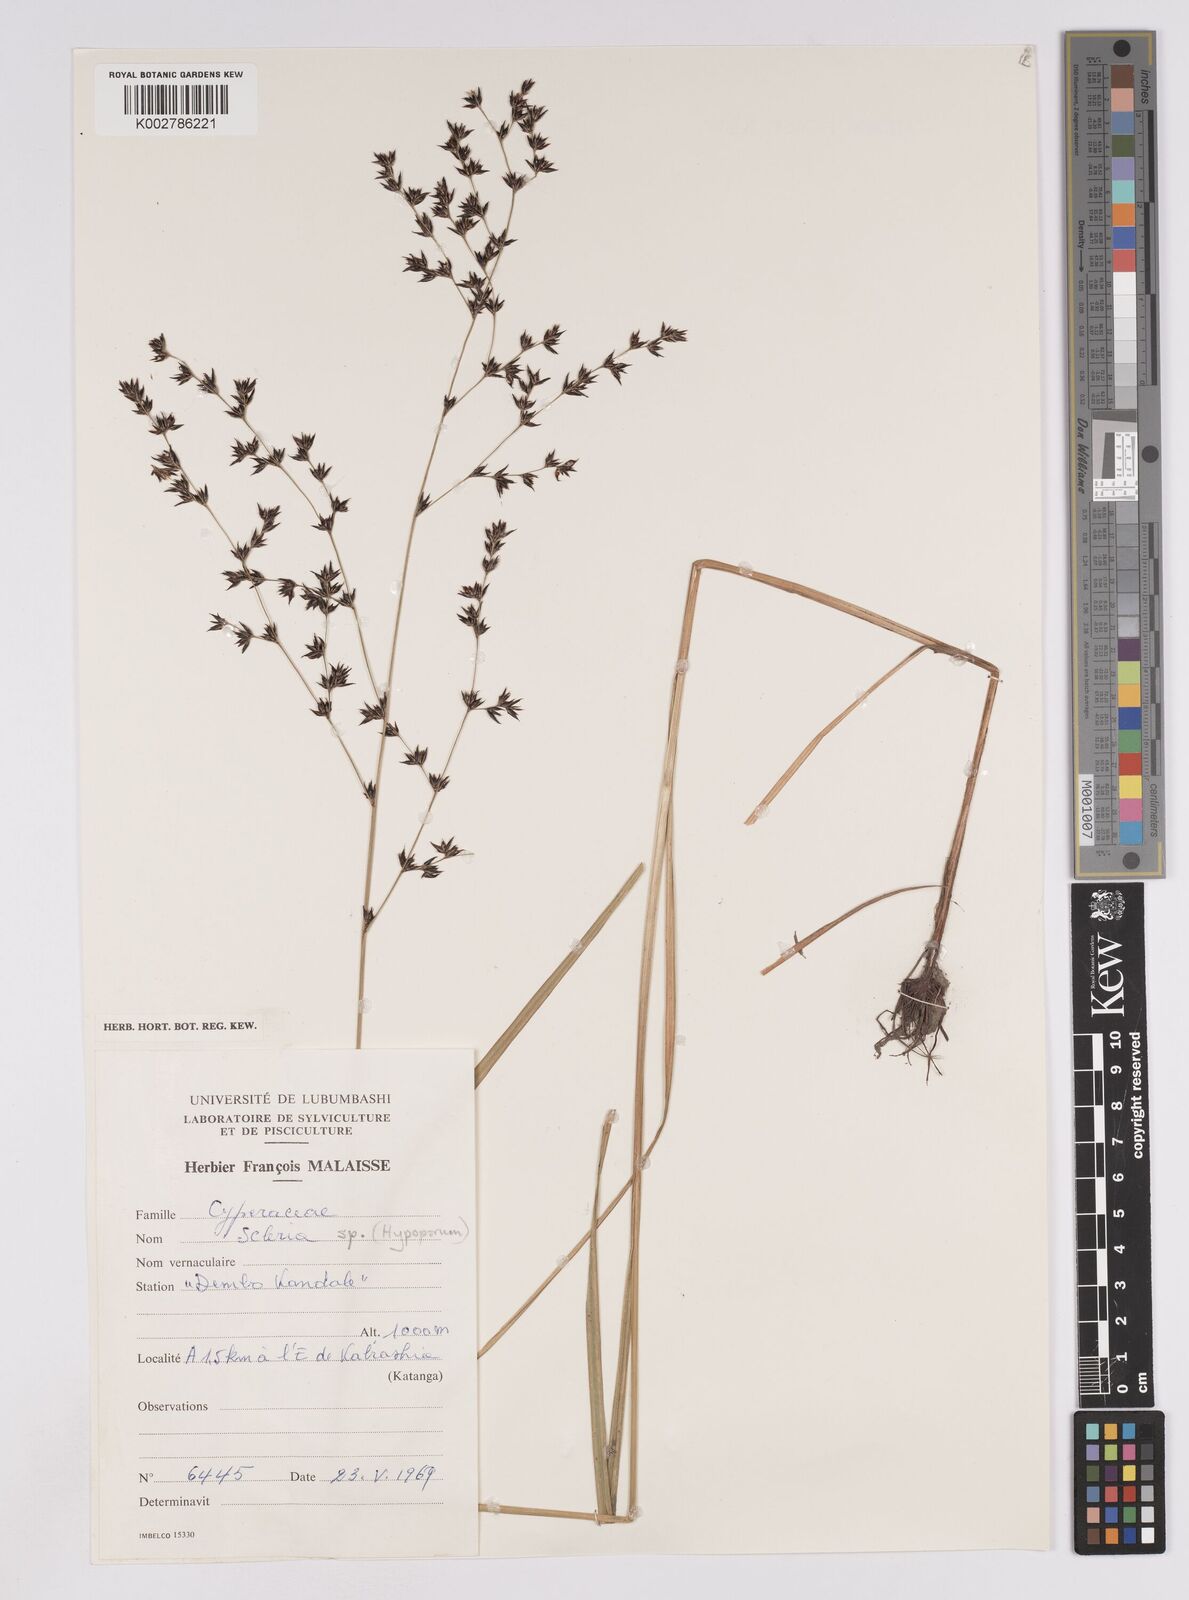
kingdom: Plantae
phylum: Tracheophyta
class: Liliopsida
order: Poales
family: Cyperaceae
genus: Scleria
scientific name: Scleria glabra
